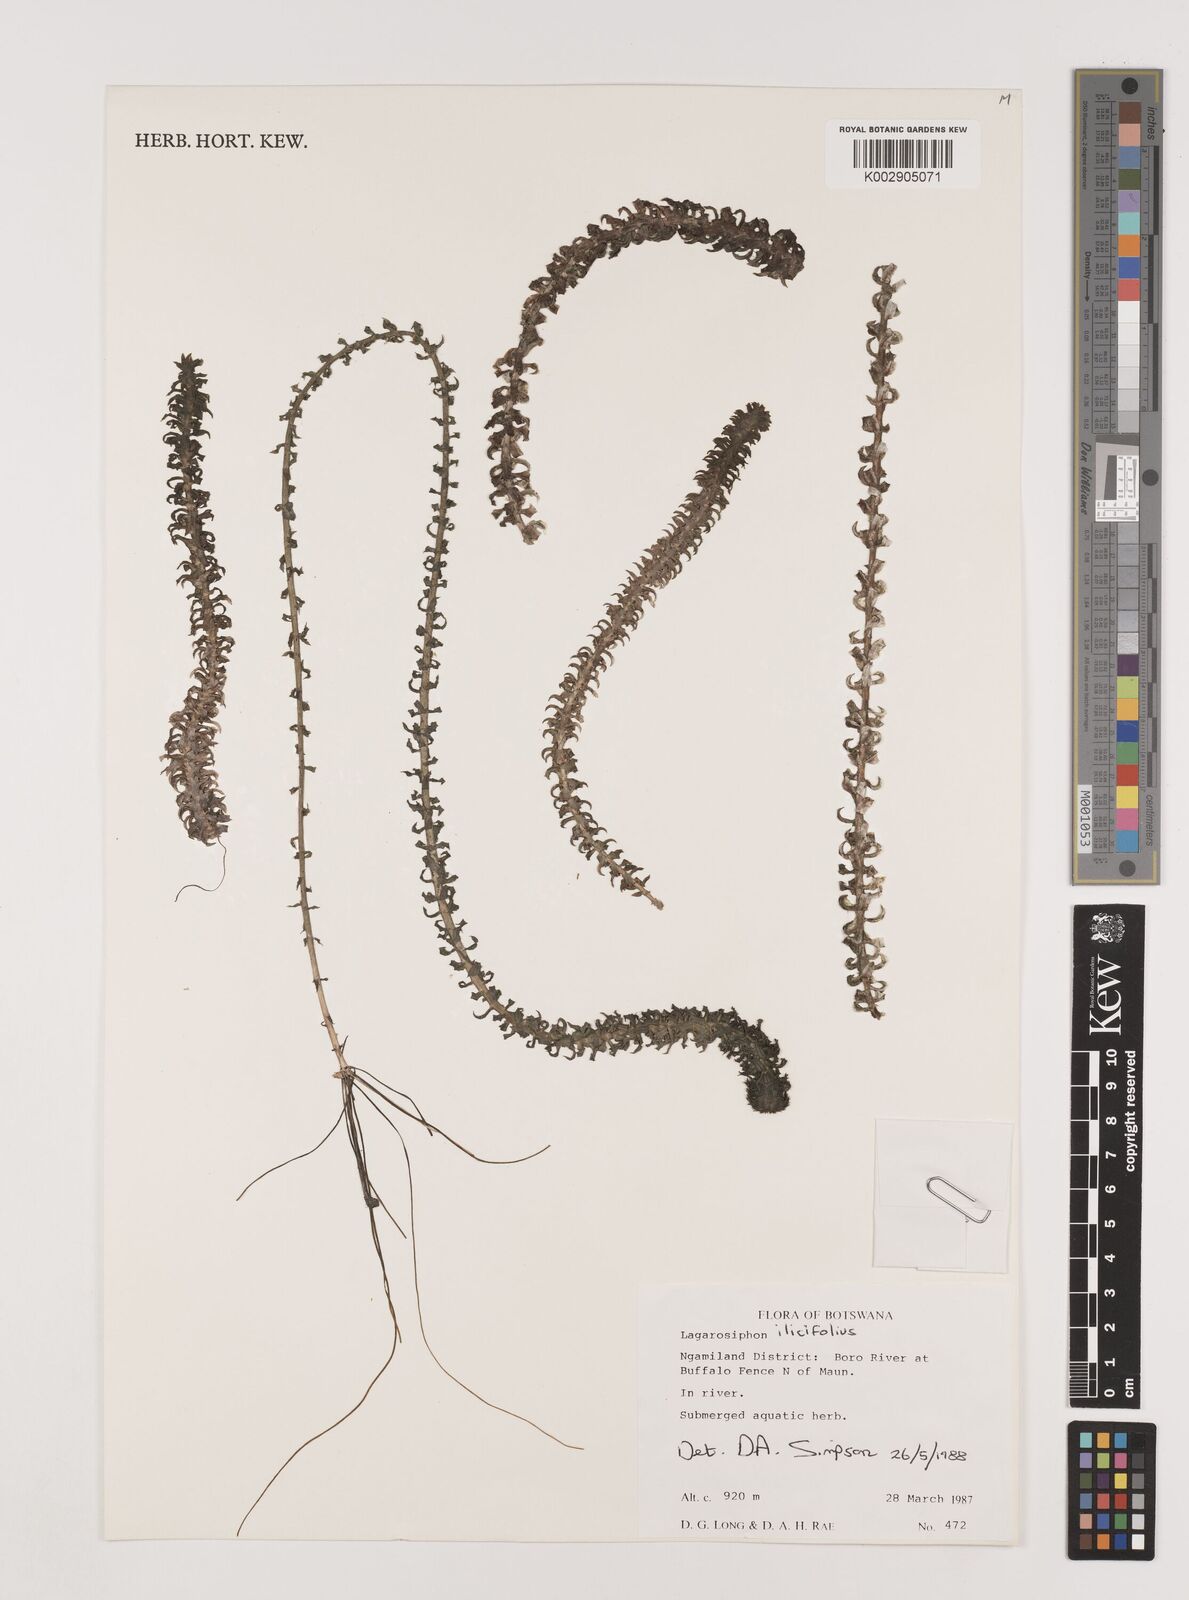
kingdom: Plantae
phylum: Tracheophyta
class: Liliopsida
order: Alismatales
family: Hydrocharitaceae
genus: Lagarosiphon
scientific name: Lagarosiphon ilicifolius
